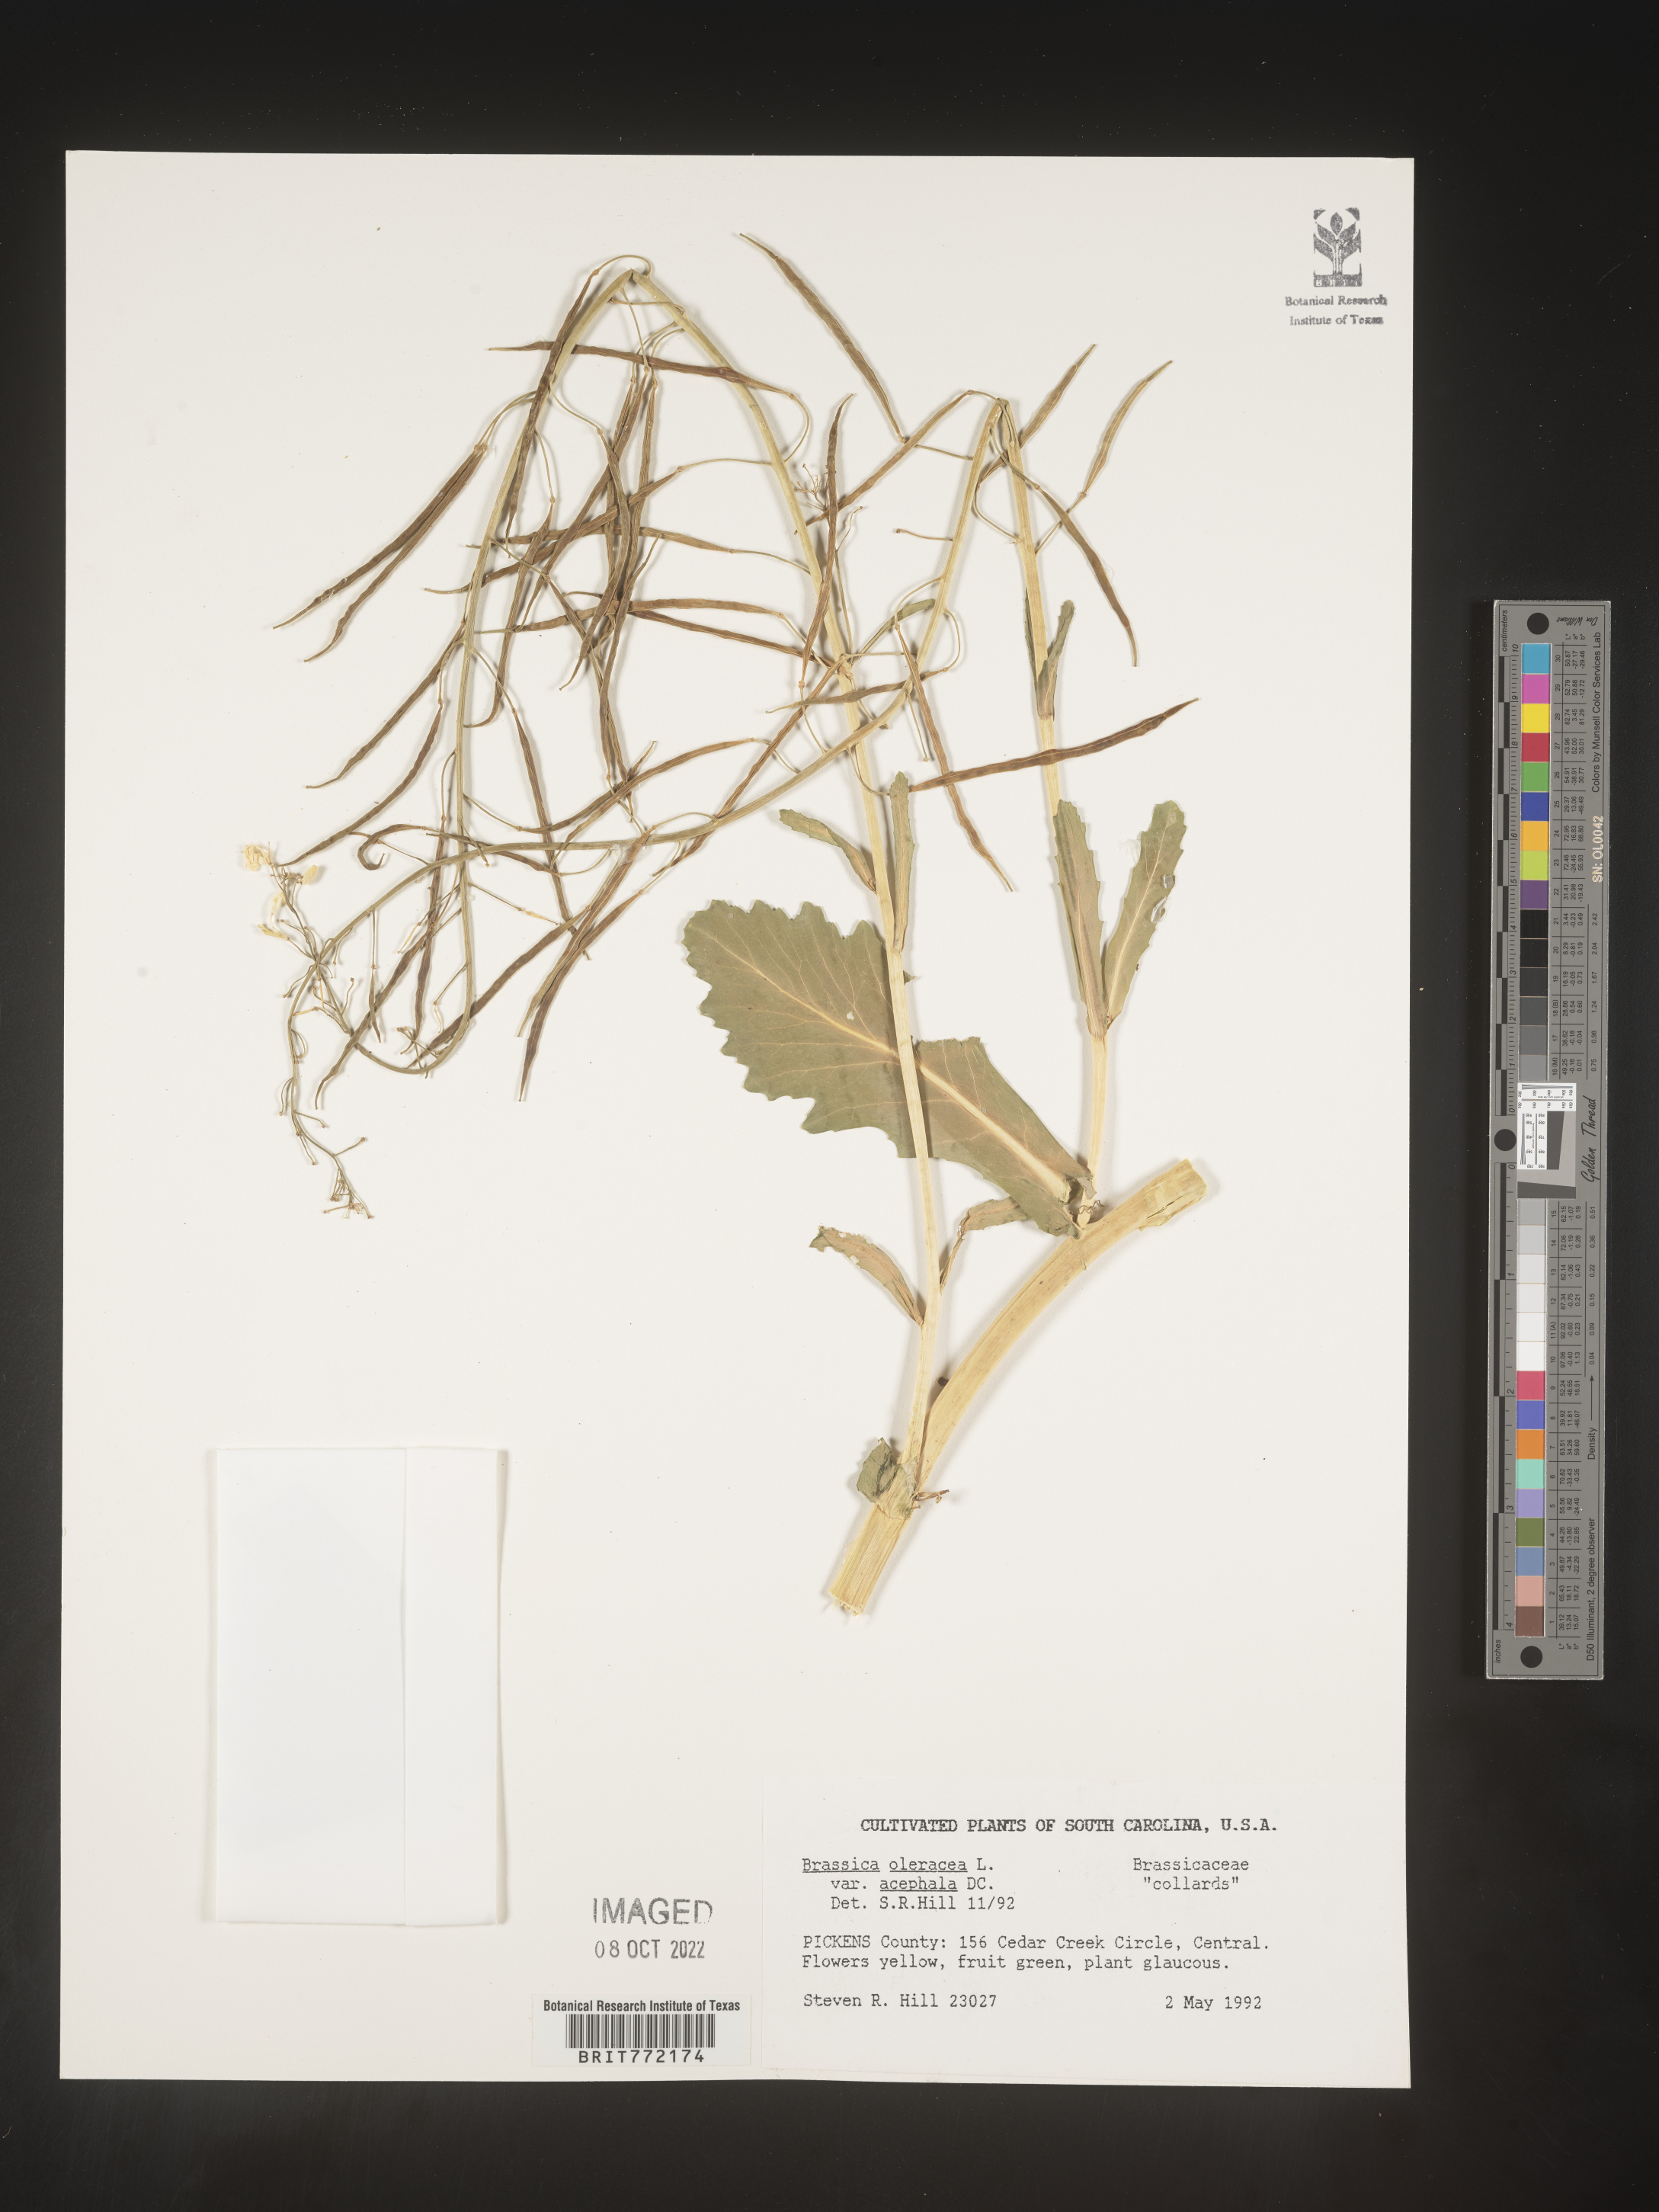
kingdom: Plantae
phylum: Tracheophyta
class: Magnoliopsida
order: Brassicales
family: Brassicaceae
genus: Brassica
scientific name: Brassica oleracea
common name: Cabbage
